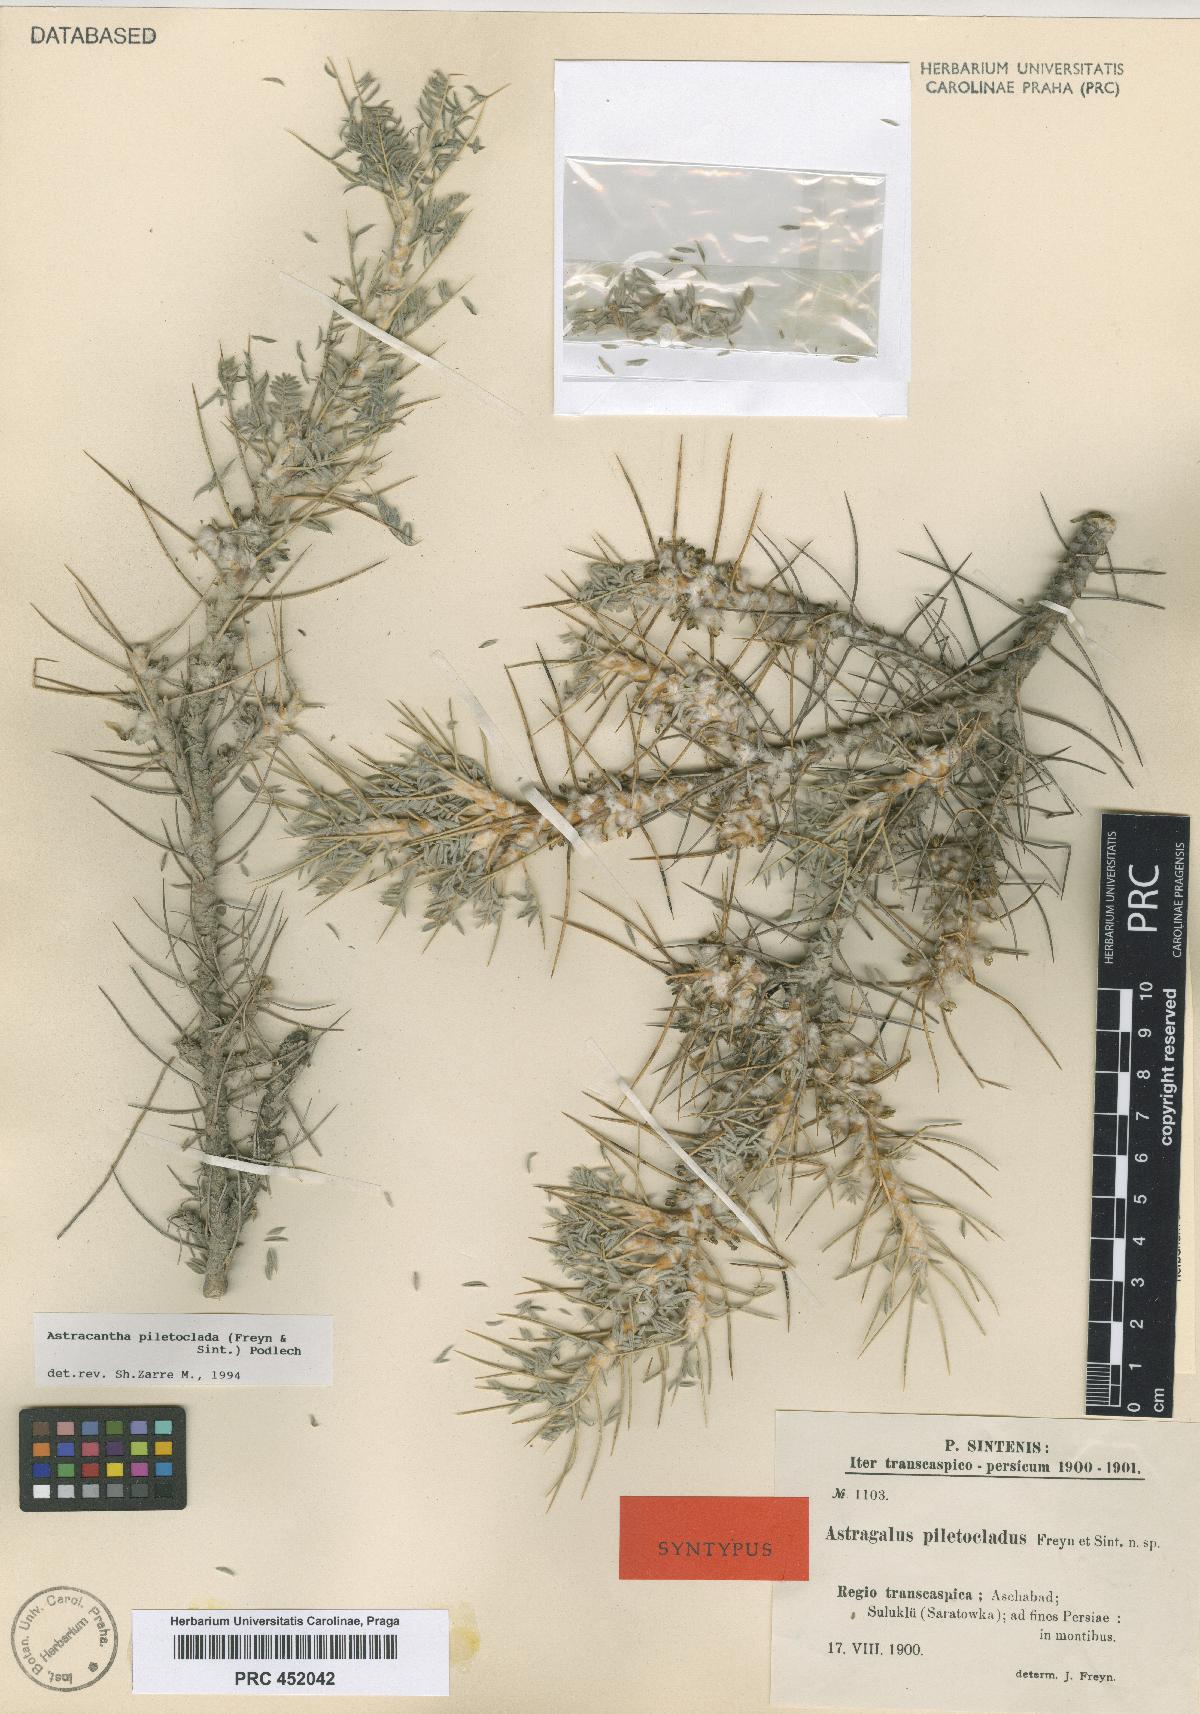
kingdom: Plantae
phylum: Tracheophyta
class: Magnoliopsida
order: Fabales
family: Fabaceae
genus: Astragalus
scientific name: Astragalus verus
